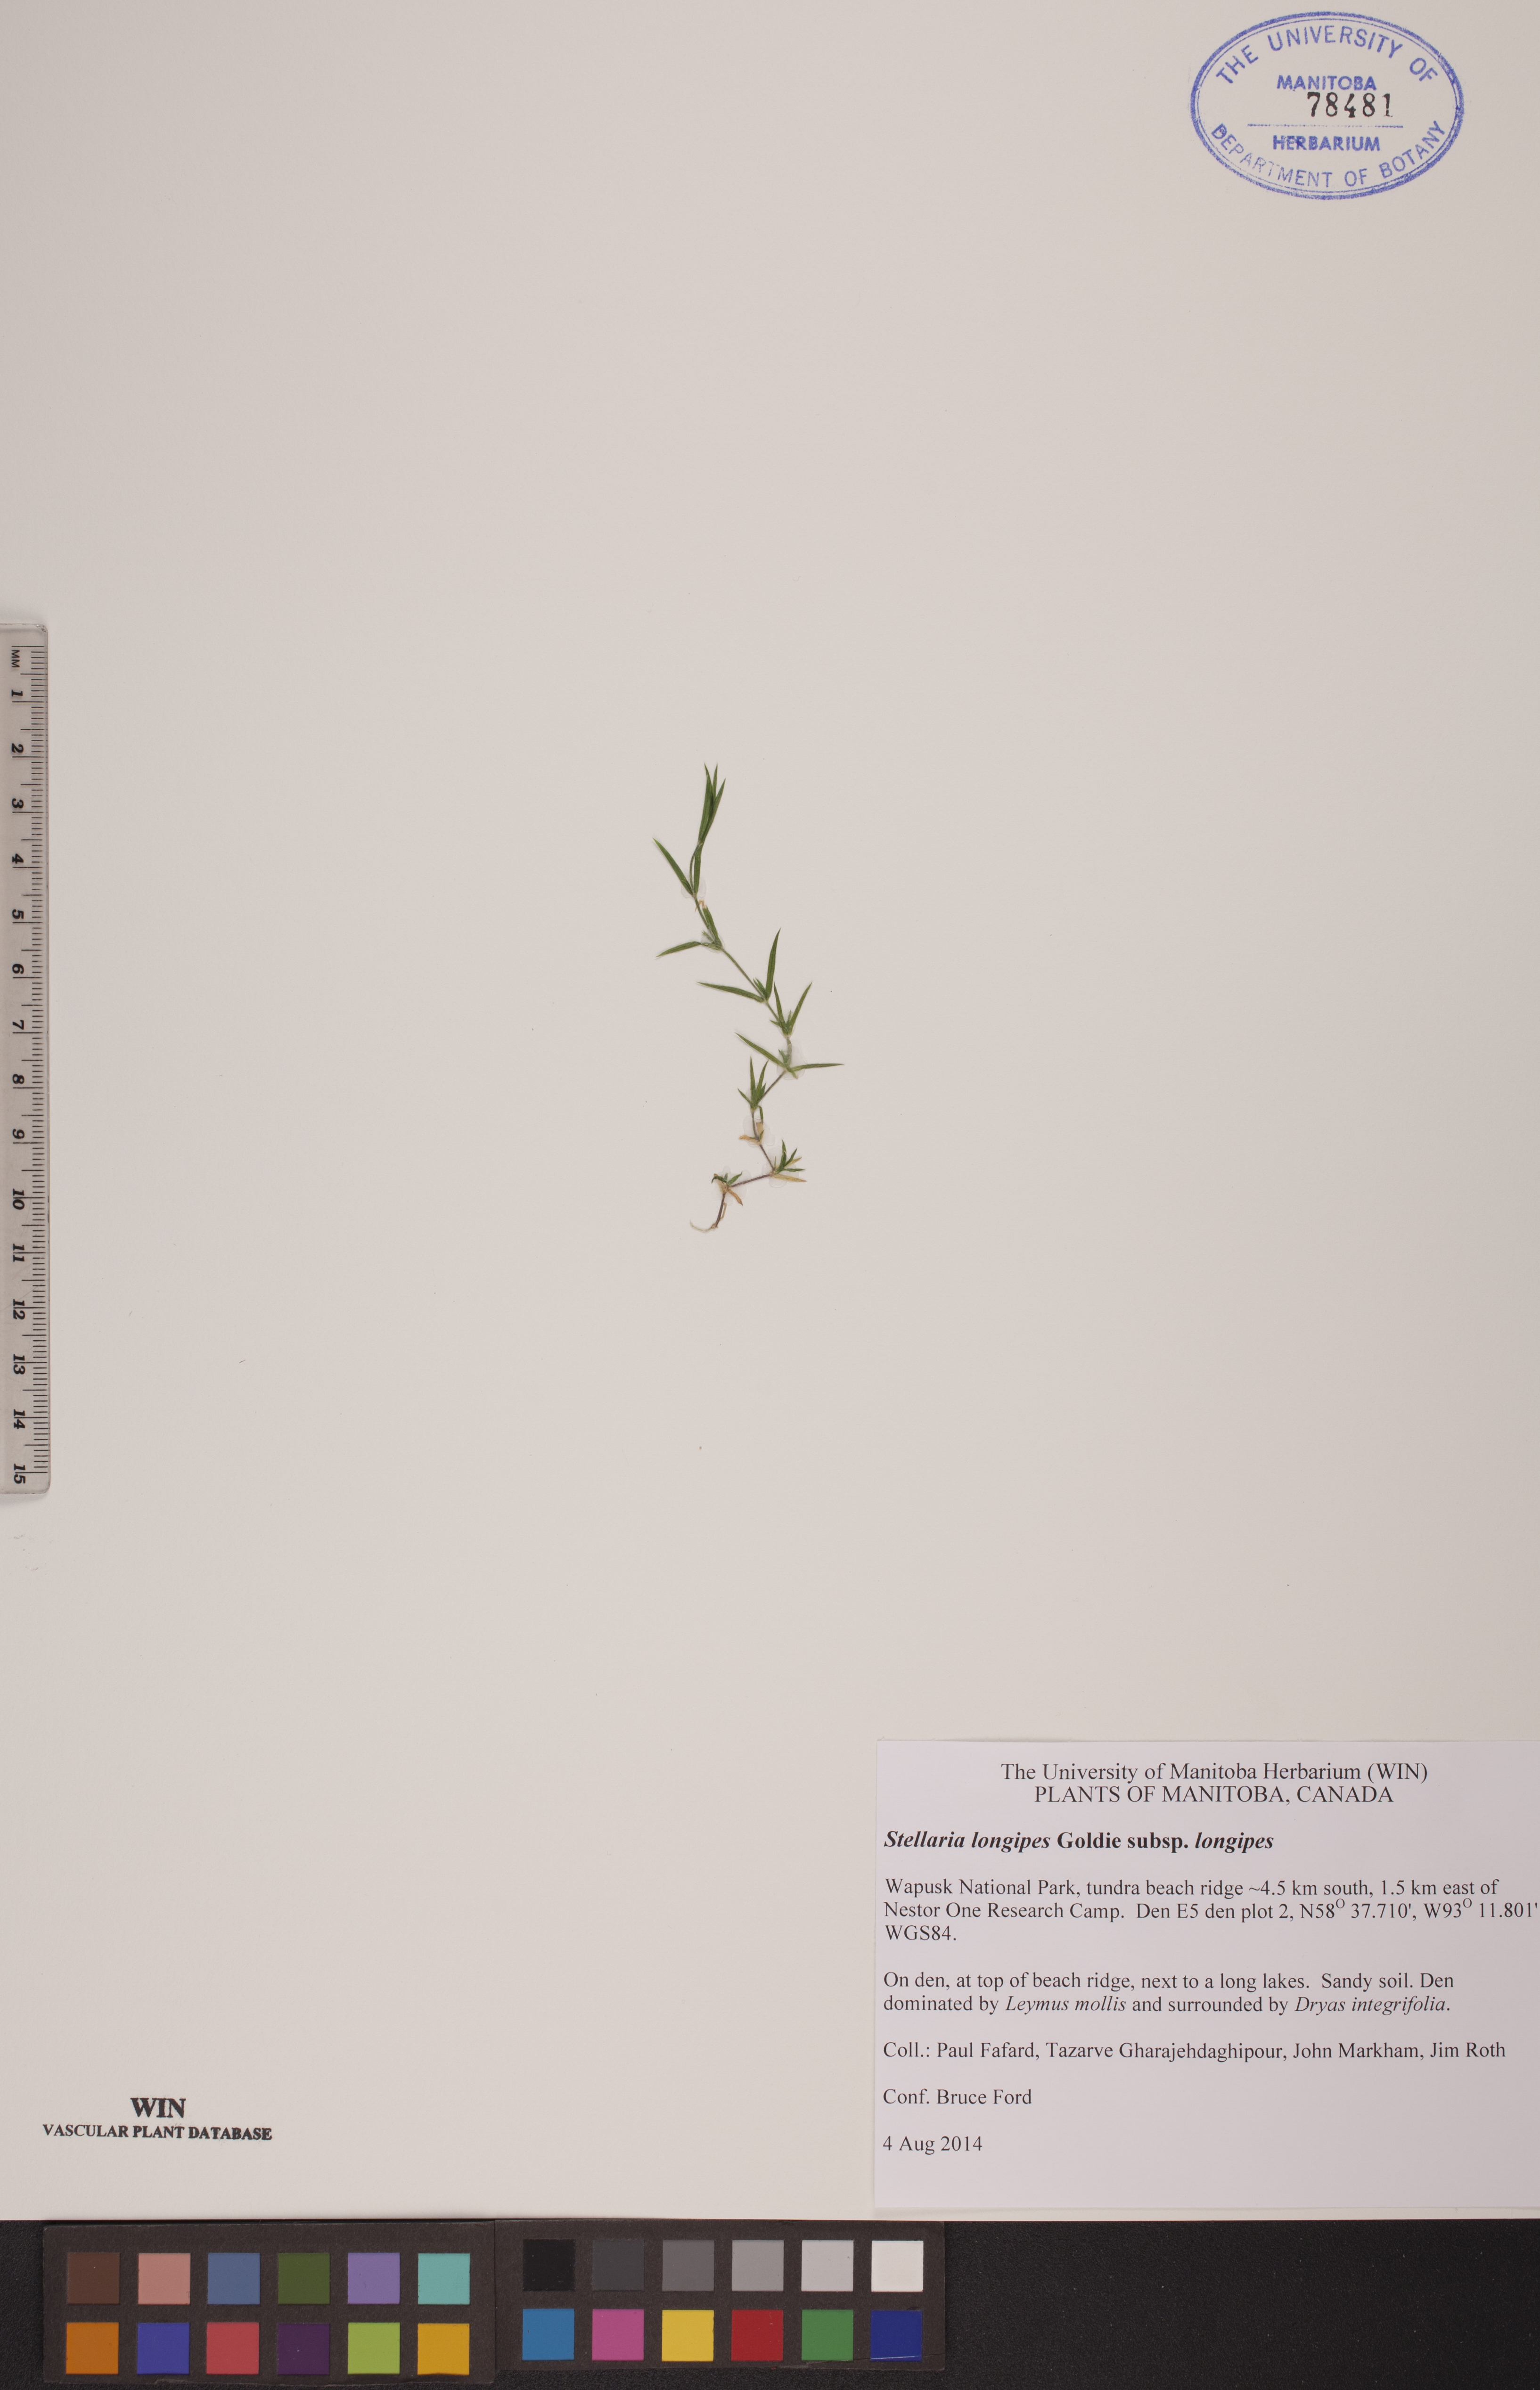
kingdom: Plantae
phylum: Tracheophyta
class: Magnoliopsida
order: Caryophyllales
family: Caryophyllaceae
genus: Stellaria
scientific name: Stellaria longipes
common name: Goldie's starwort
